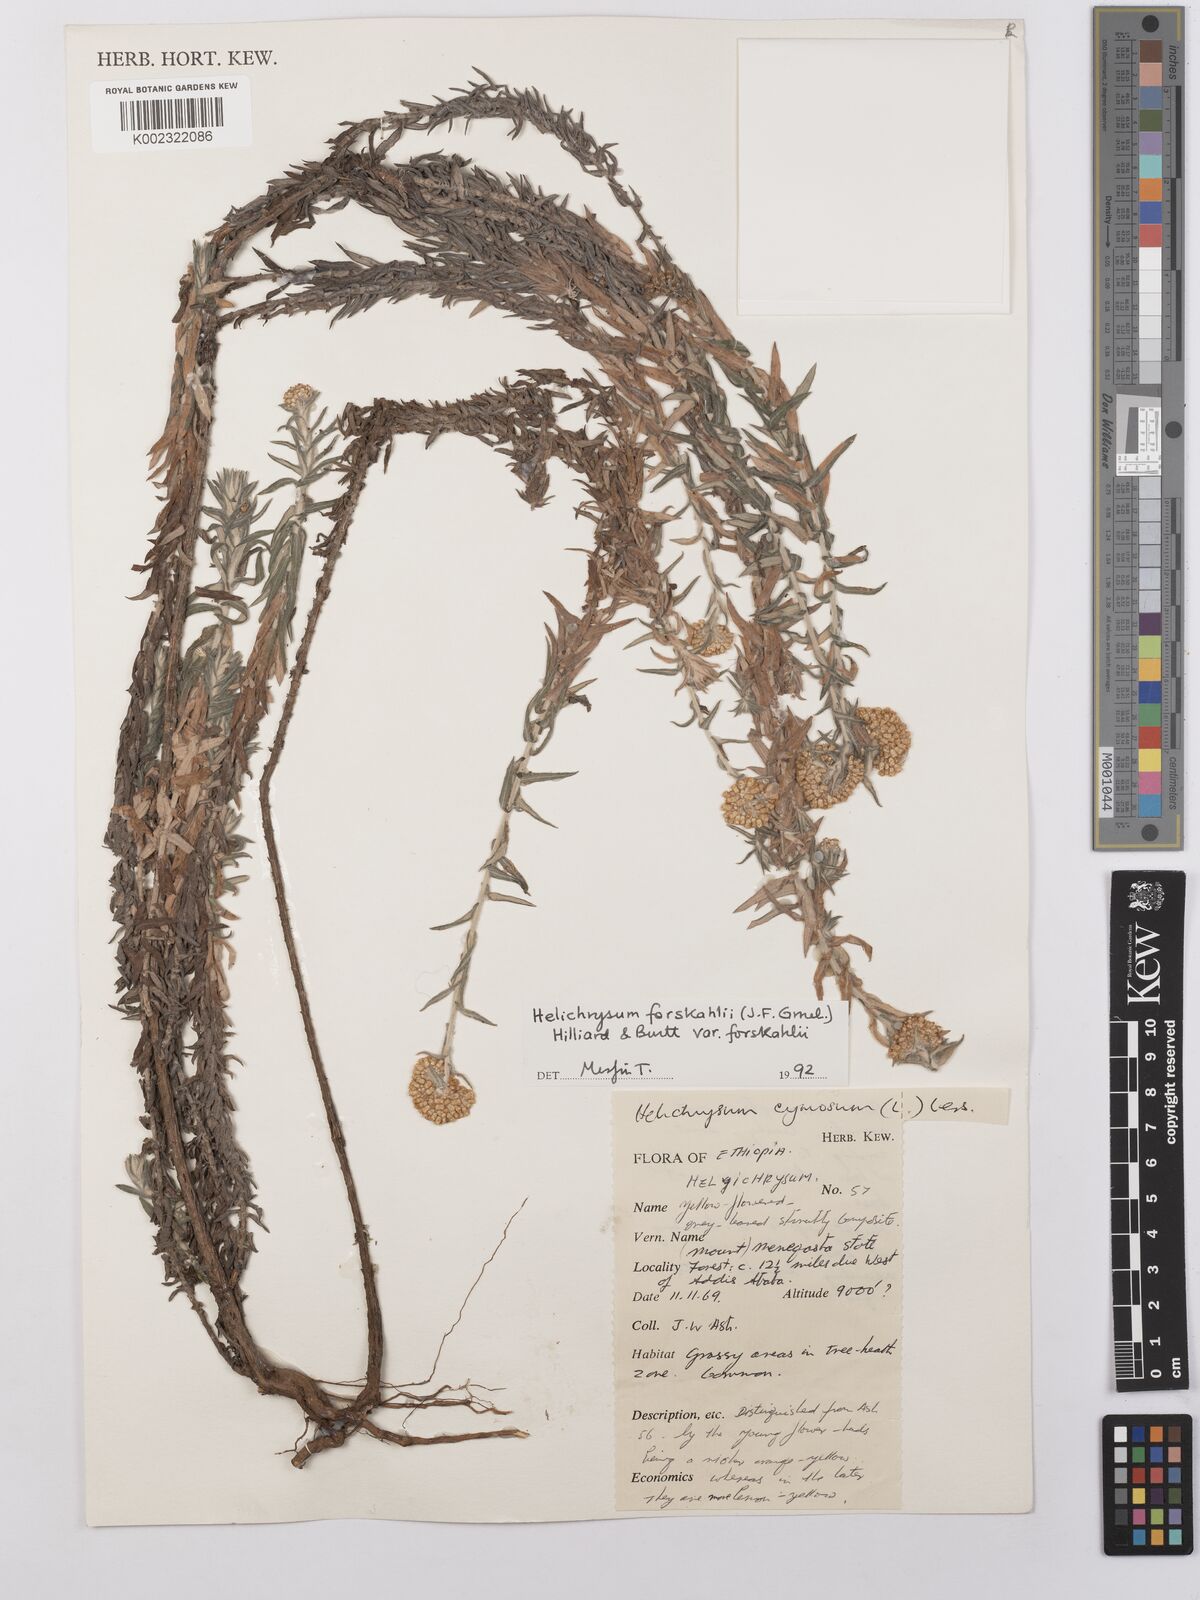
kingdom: Plantae
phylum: Tracheophyta
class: Magnoliopsida
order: Asterales
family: Asteraceae
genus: Helichrysum
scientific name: Helichrysum forskahlii
